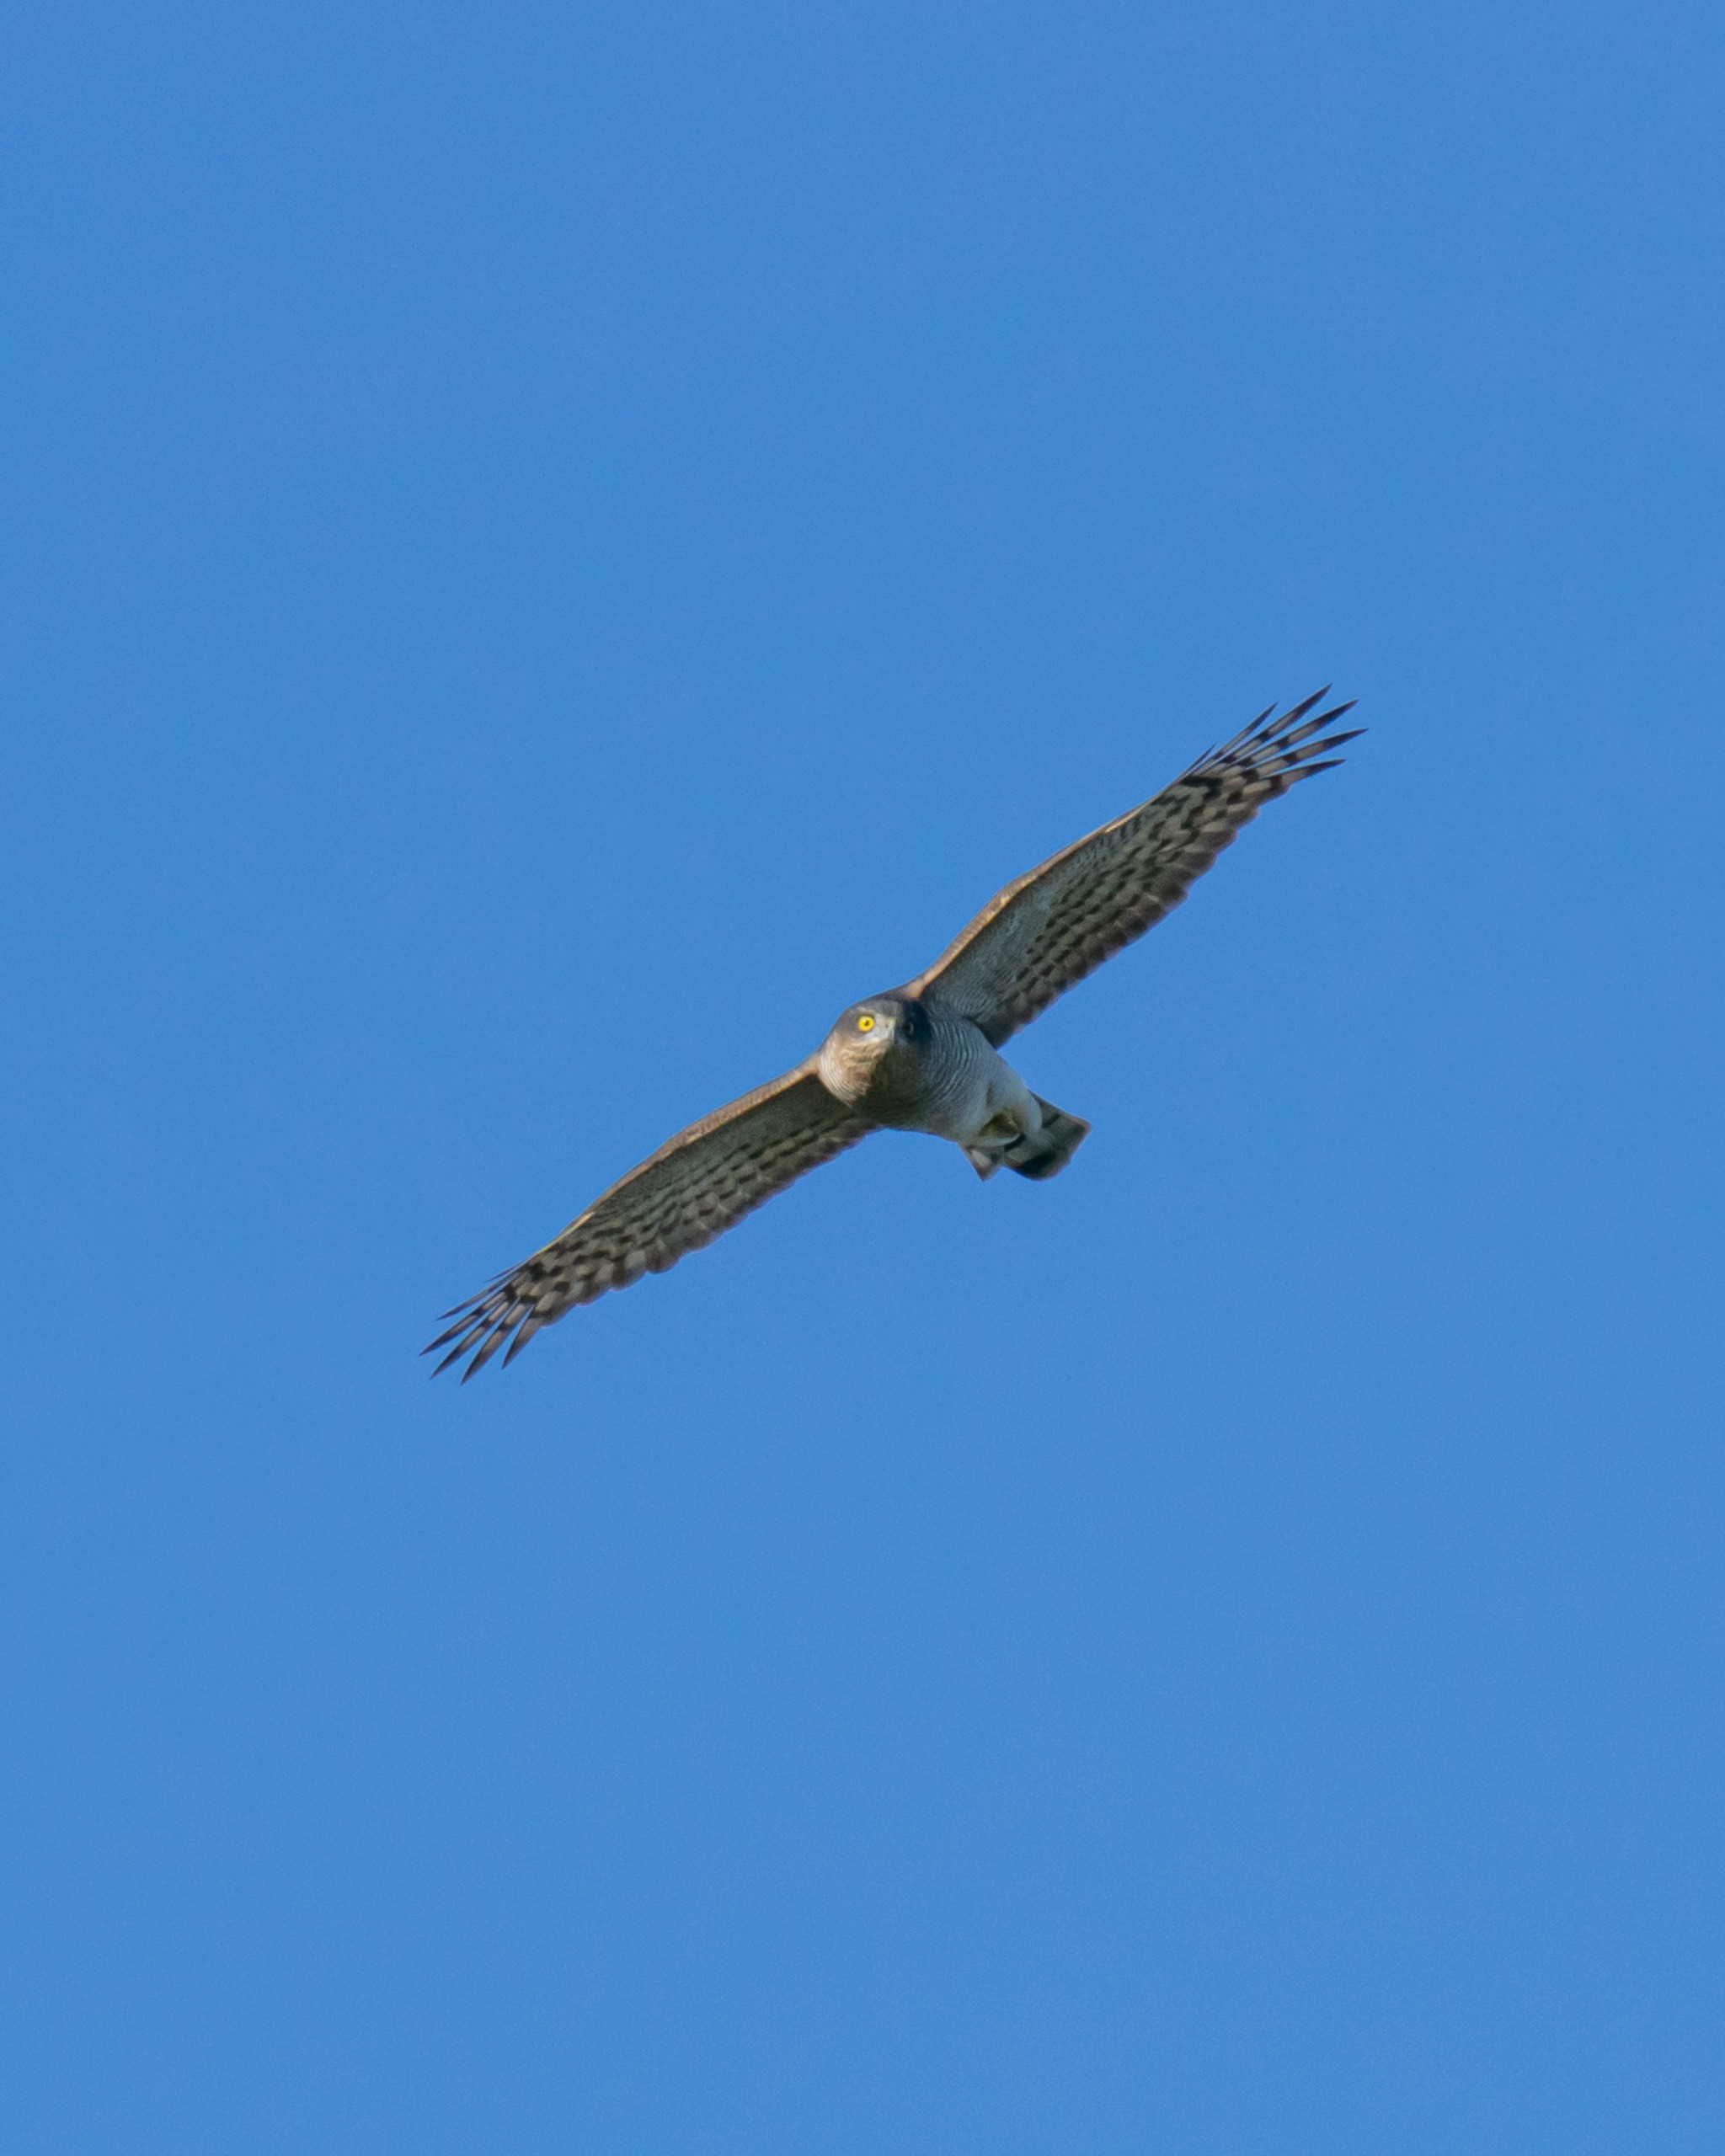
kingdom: Animalia
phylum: Chordata
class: Aves
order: Accipitriformes
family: Accipitridae
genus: Accipiter
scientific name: Accipiter nisus
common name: Spurvehøg
